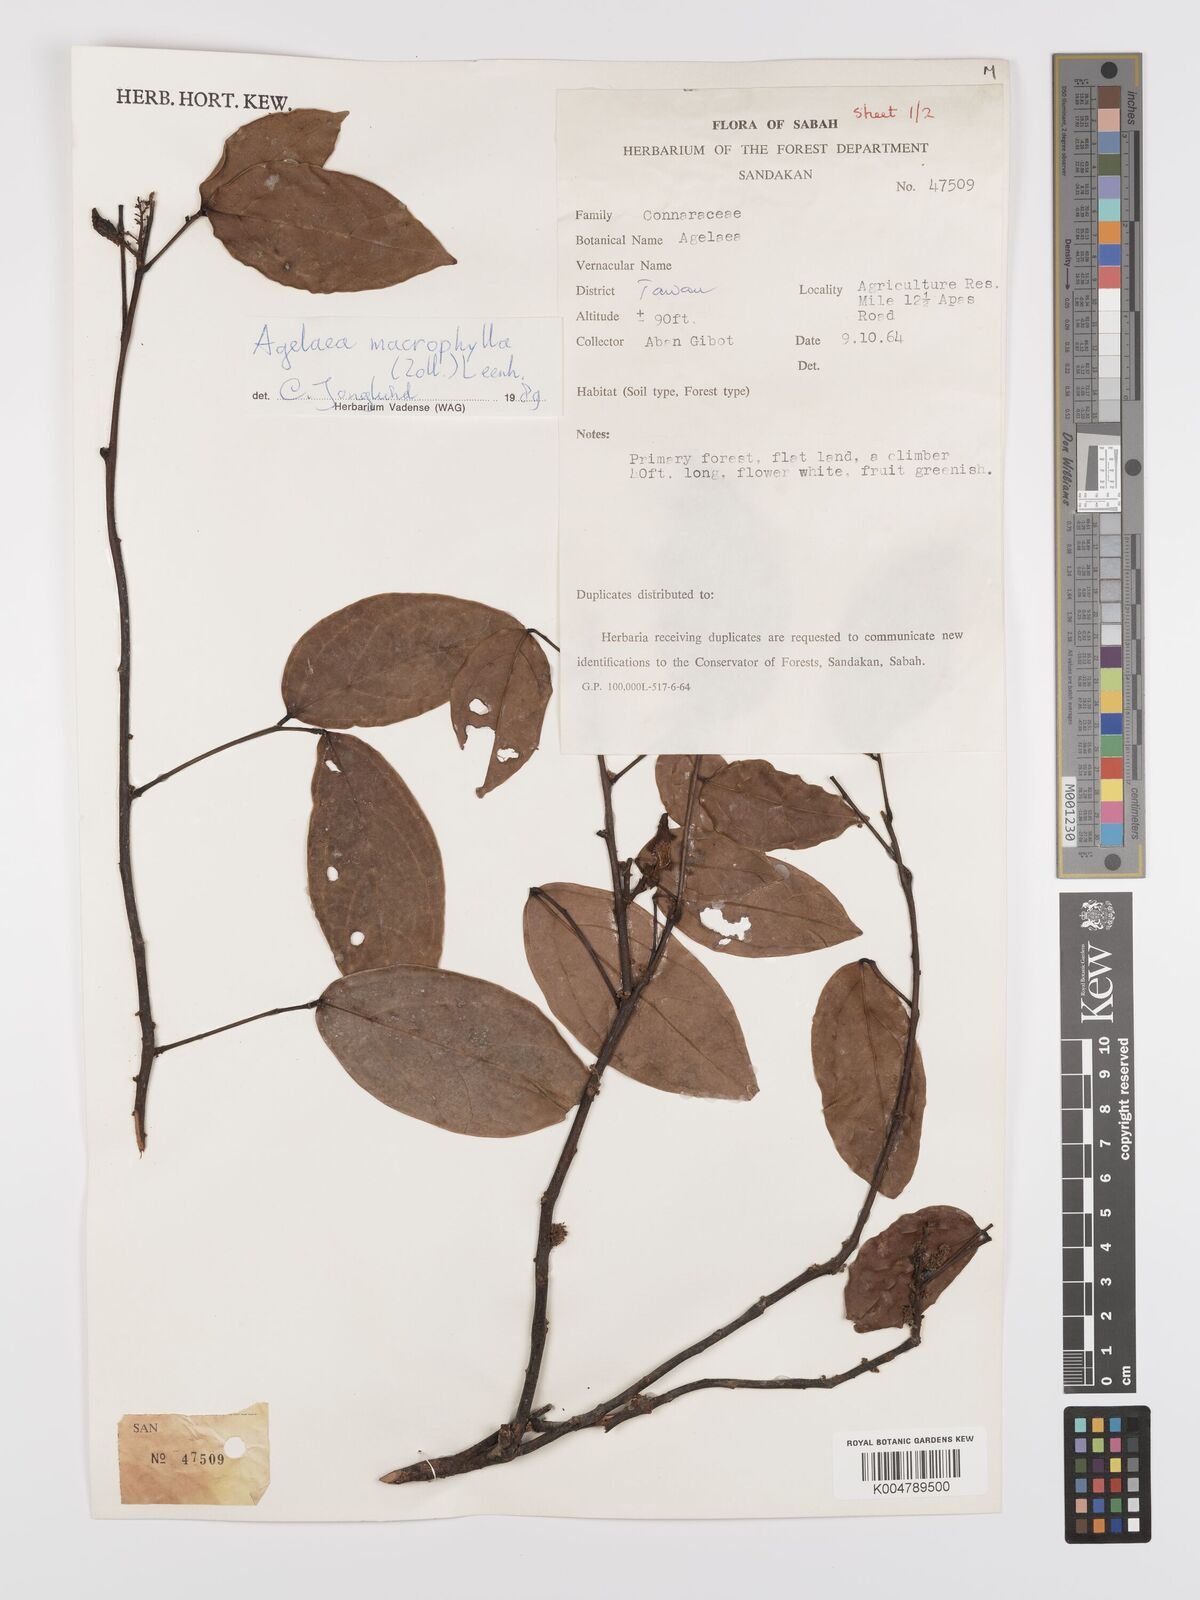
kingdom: Plantae
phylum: Tracheophyta
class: Magnoliopsida
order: Oxalidales
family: Connaraceae
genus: Agelaea
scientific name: Agelaea macrophylla
